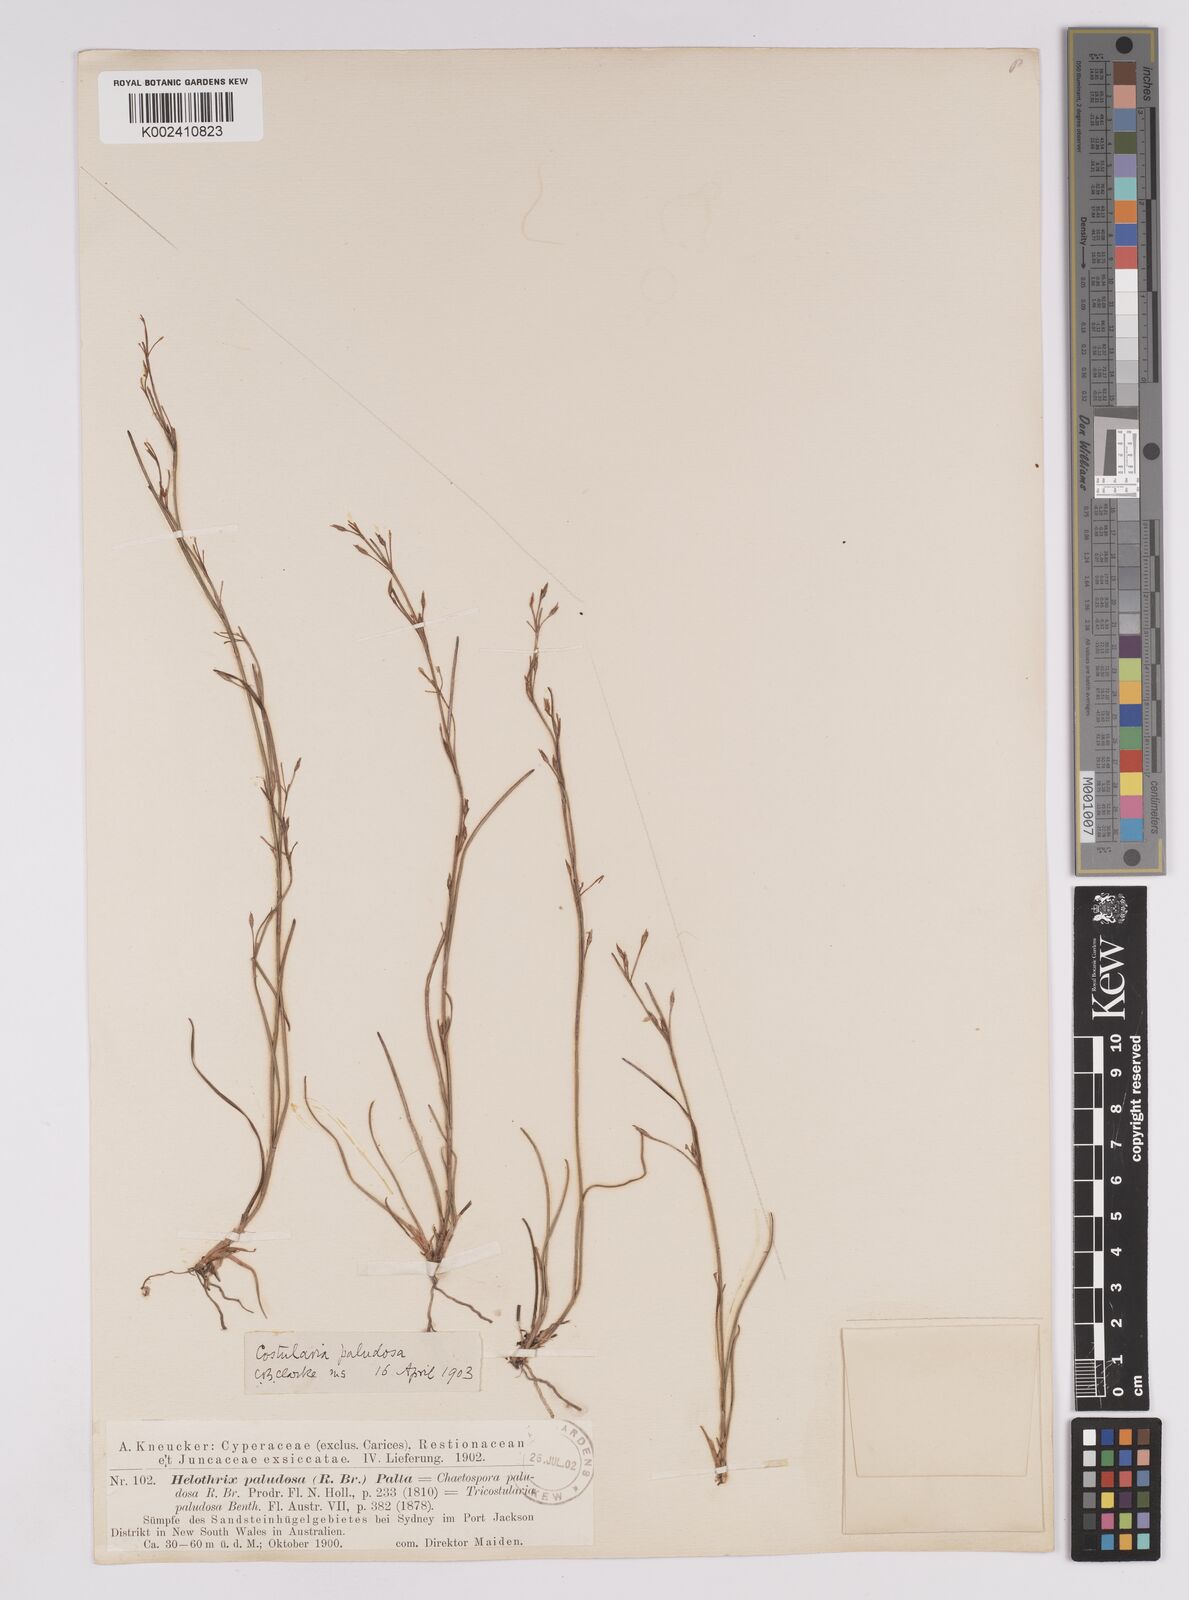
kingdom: Plantae
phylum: Tracheophyta
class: Liliopsida
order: Poales
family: Cyperaceae
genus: Anthelepis
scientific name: Anthelepis paludosa
